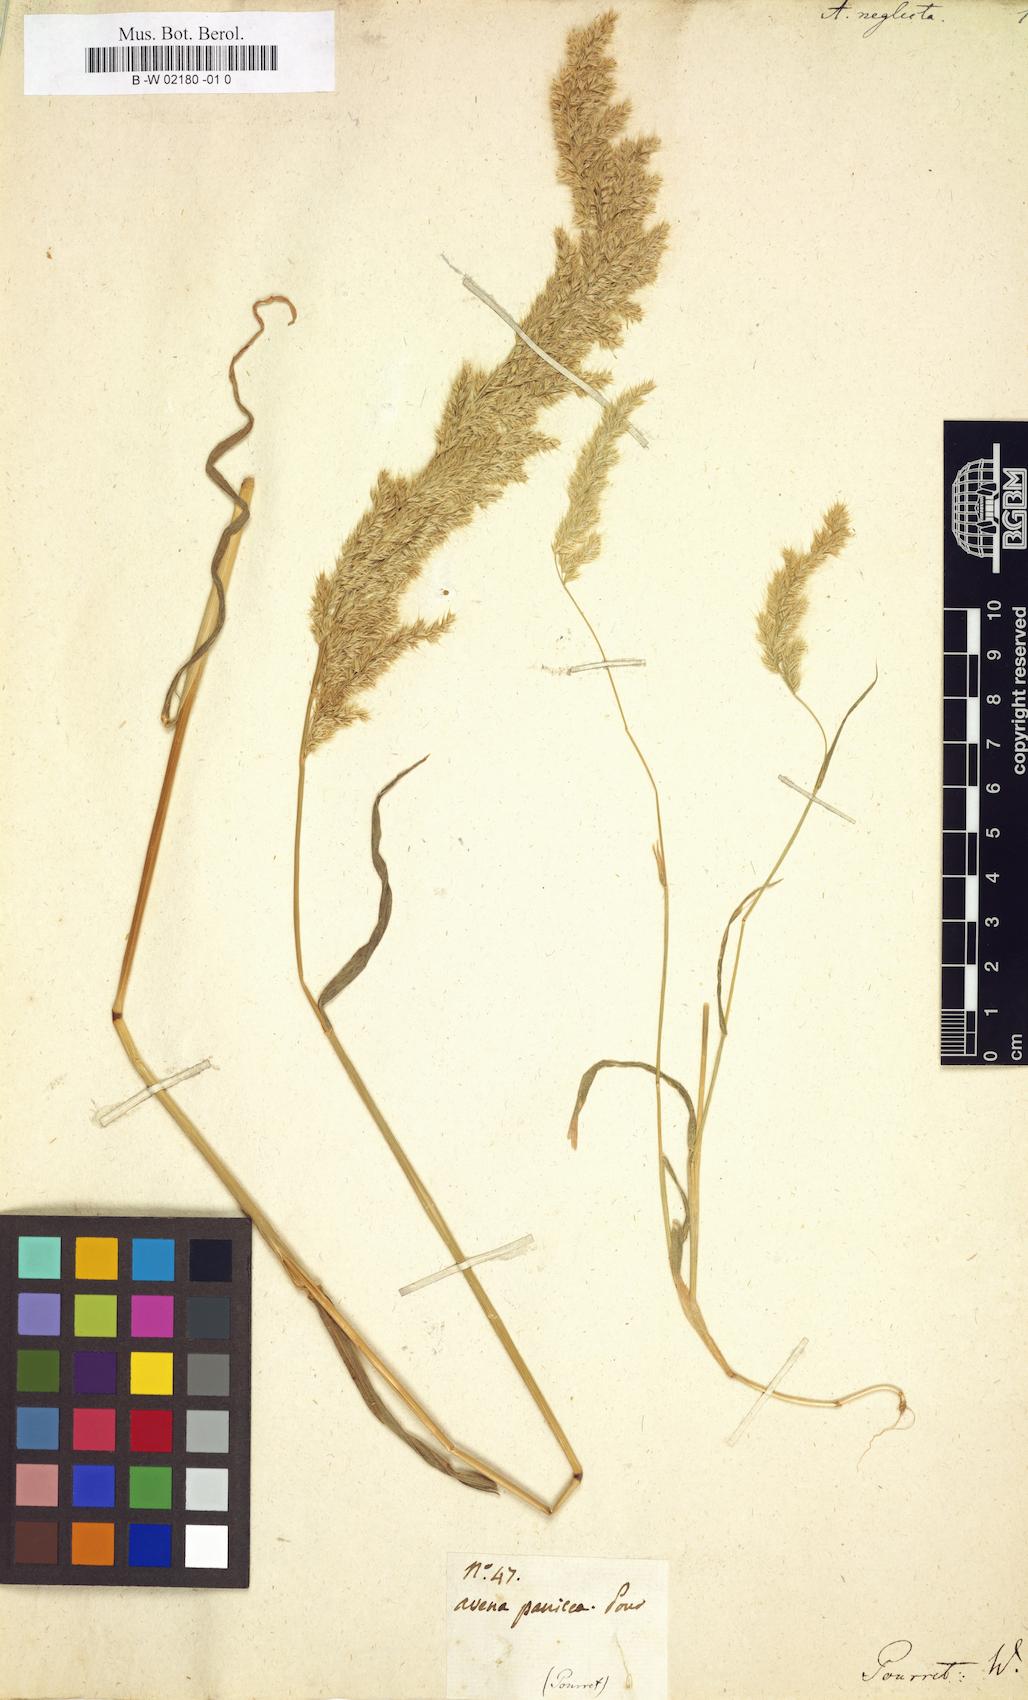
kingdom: Plantae
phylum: Tracheophyta
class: Liliopsida
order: Poales
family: Poaceae
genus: Trisetaria
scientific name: Trisetaria panicea
